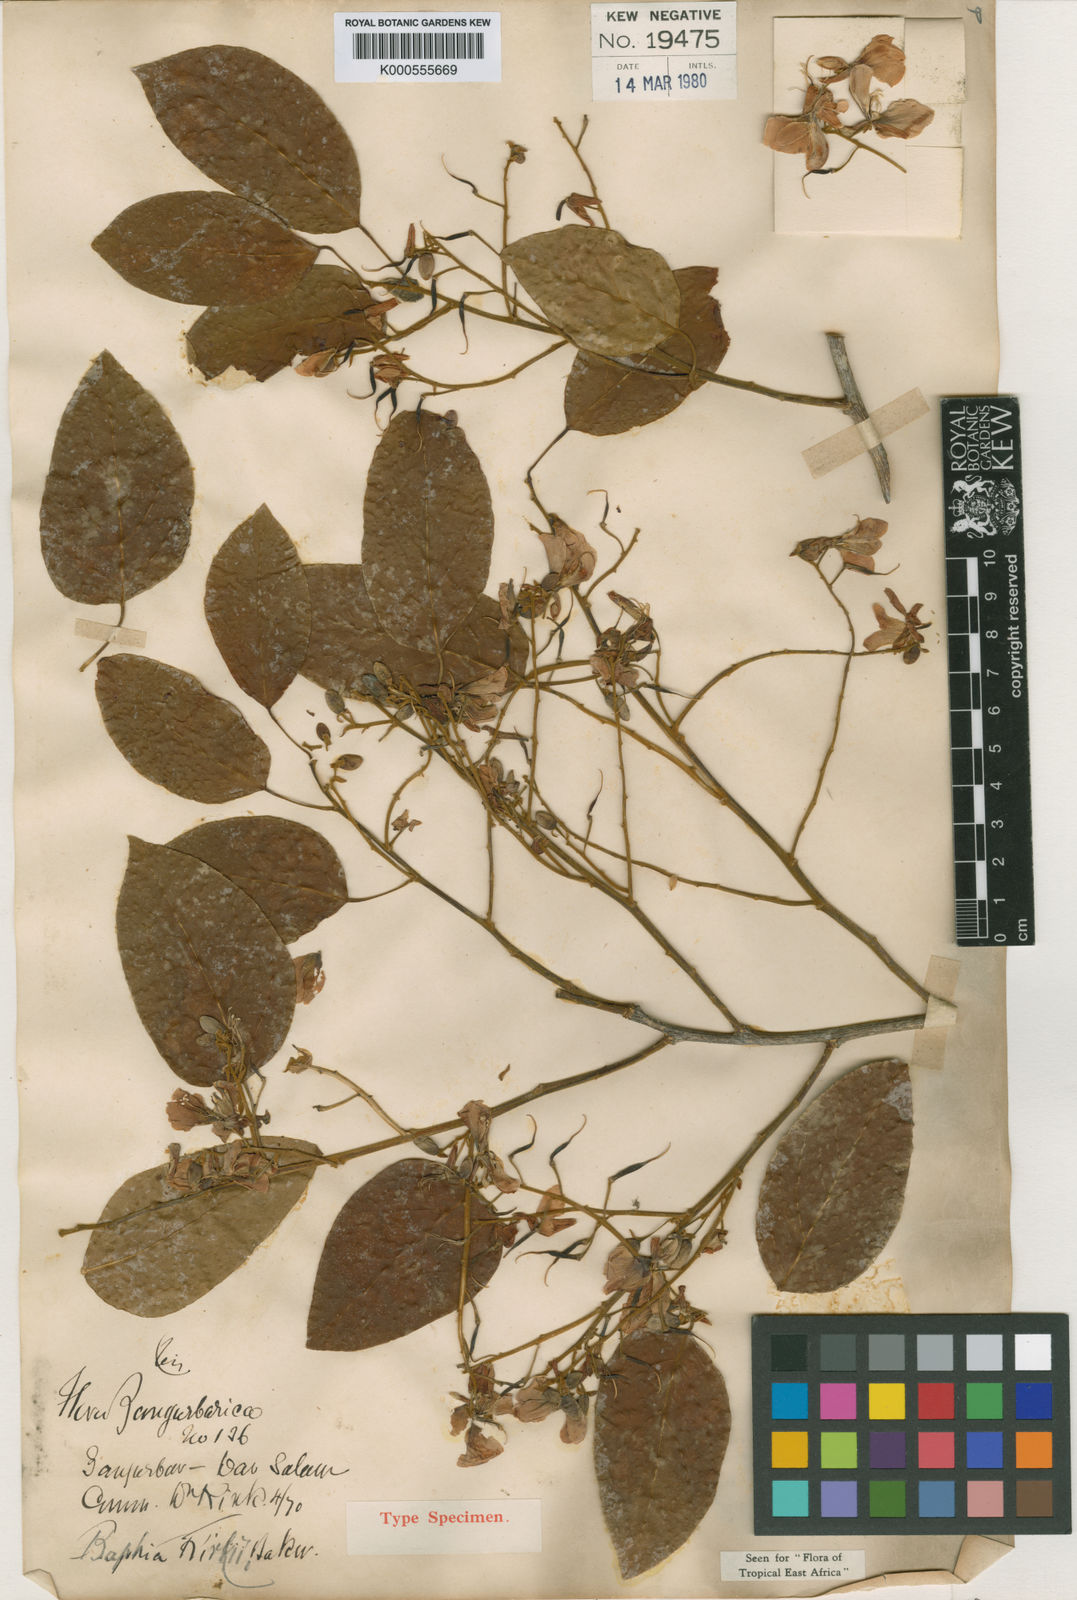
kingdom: Plantae
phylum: Tracheophyta
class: Magnoliopsida
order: Fabales
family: Fabaceae
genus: Baphia
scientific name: Baphia kirkii
